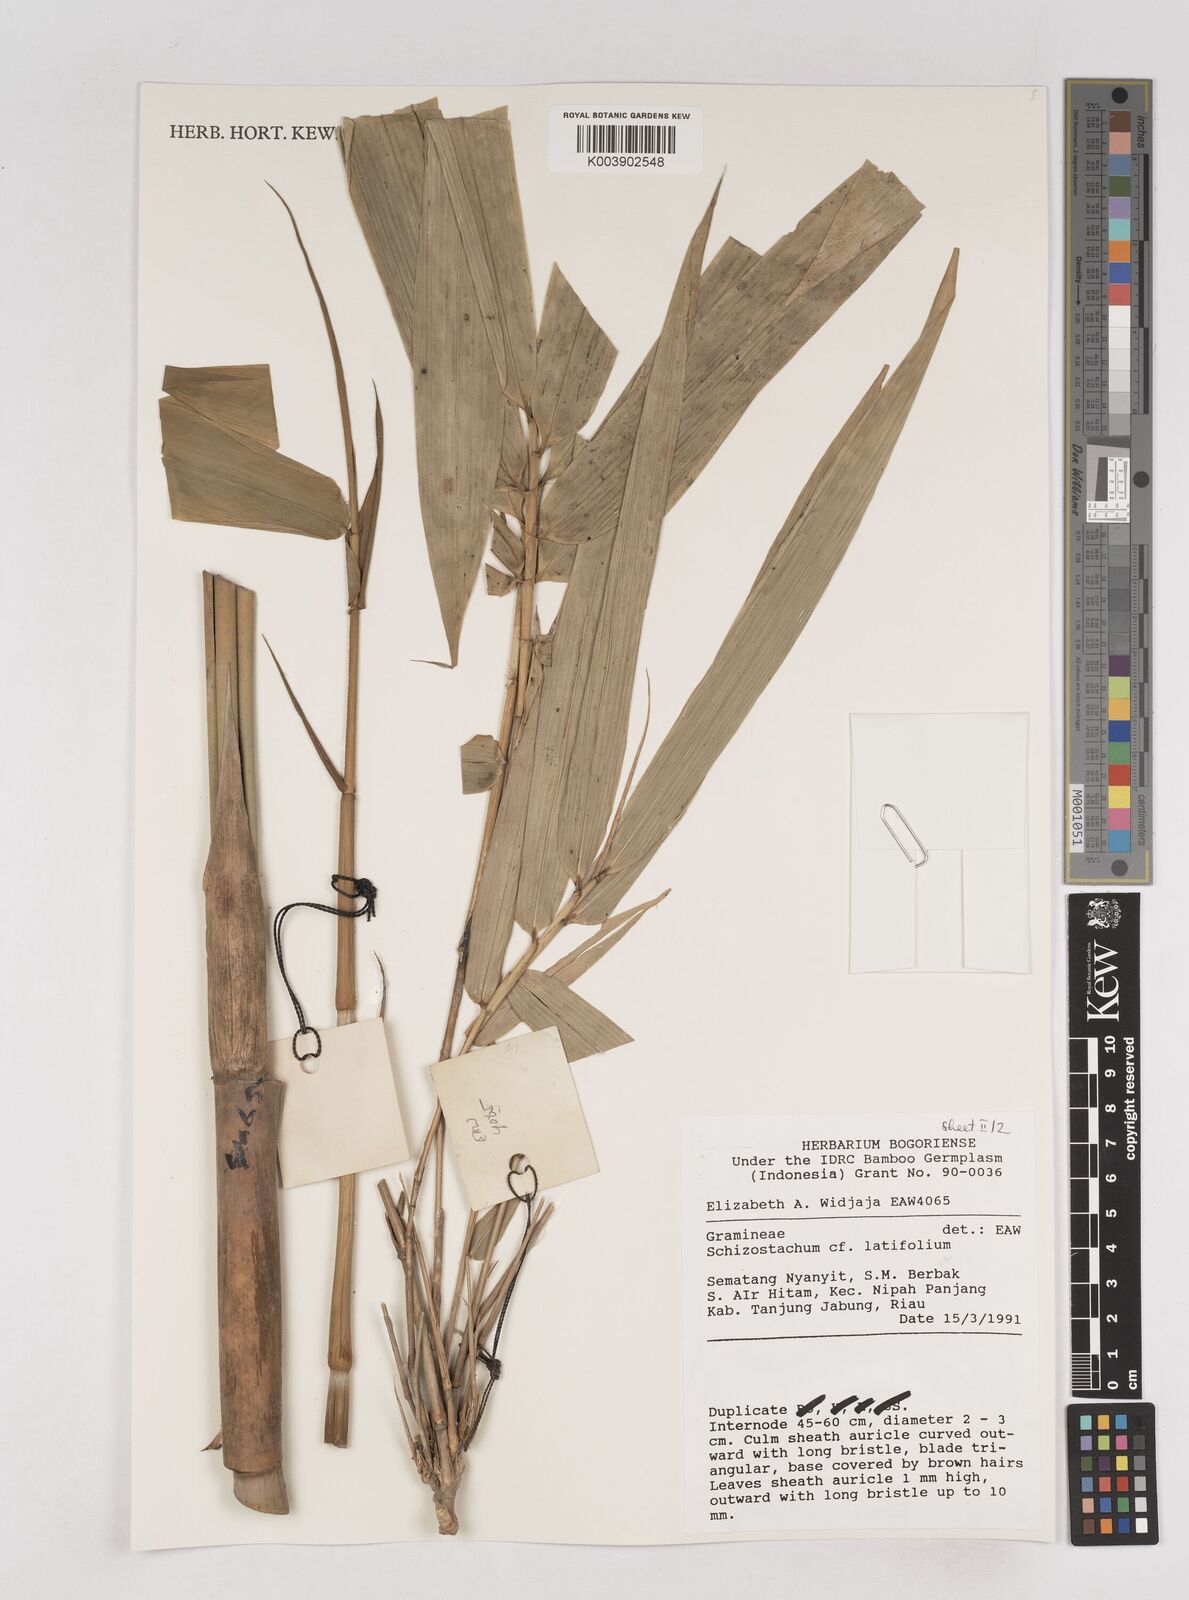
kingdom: Plantae
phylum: Tracheophyta
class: Liliopsida
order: Poales
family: Poaceae
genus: Schizostachyum
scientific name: Schizostachyum
